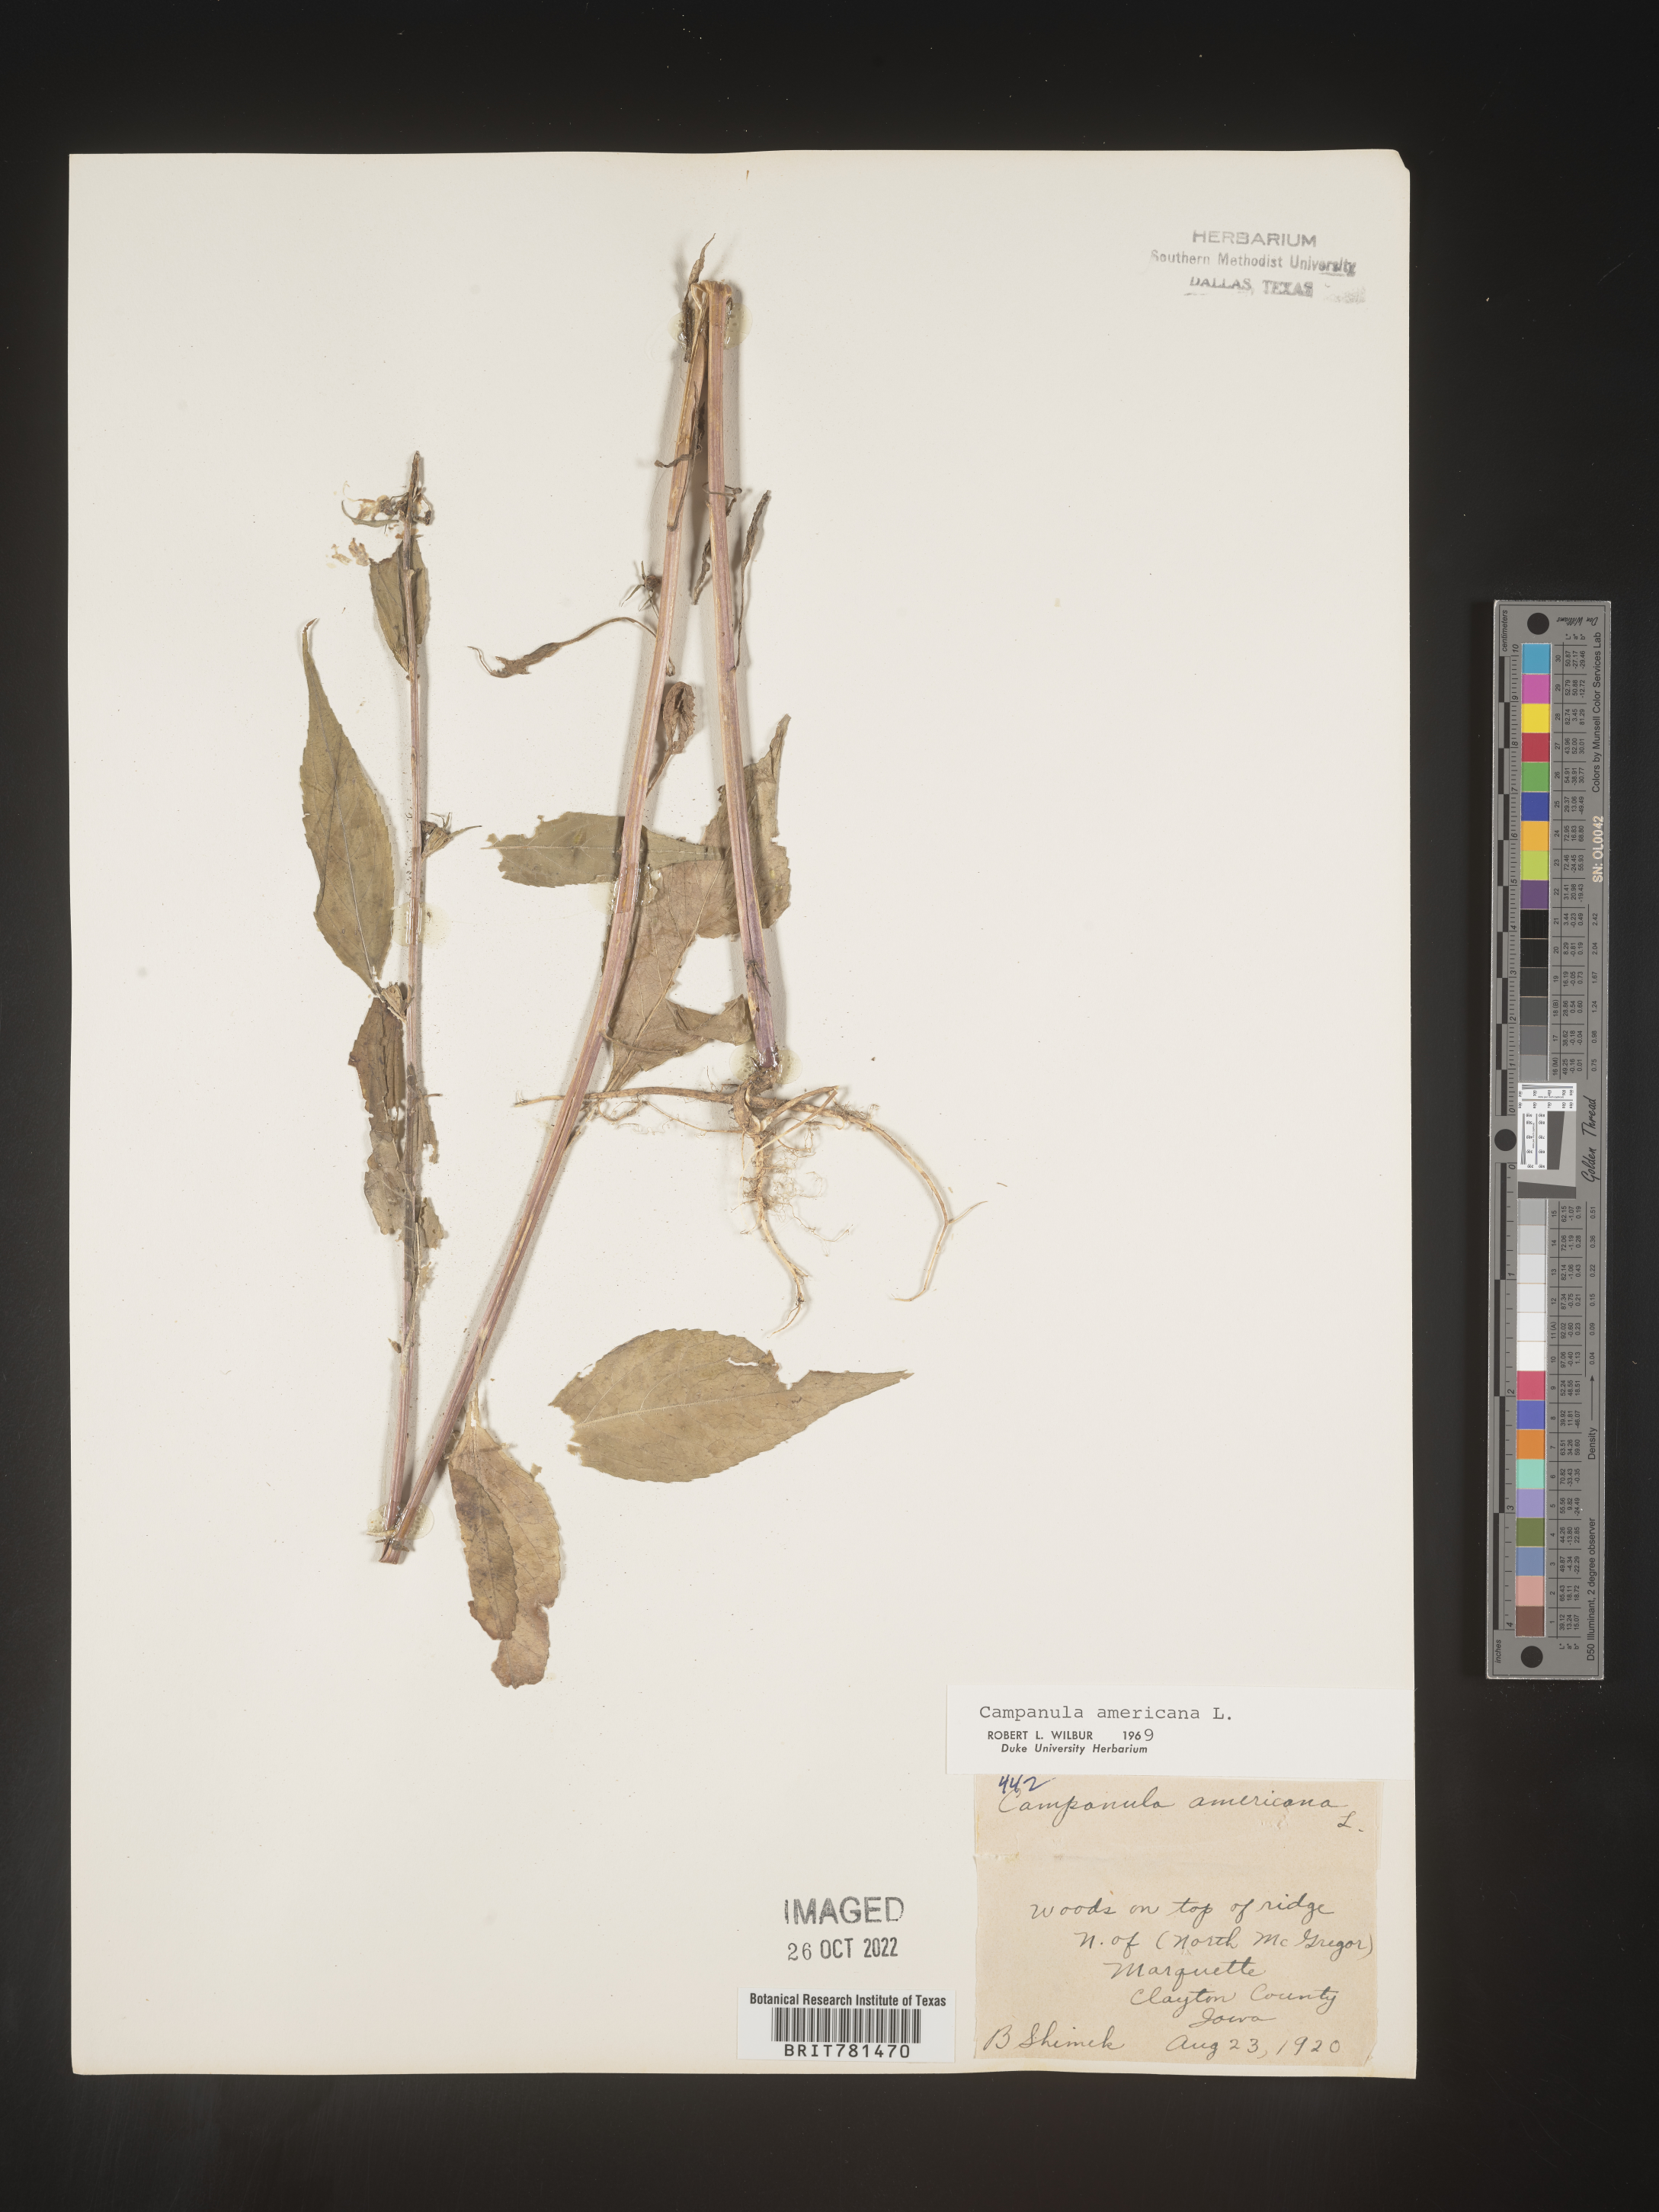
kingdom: Plantae
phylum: Tracheophyta
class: Magnoliopsida
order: Asterales
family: Campanulaceae
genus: Campanula
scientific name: Campanula americana
